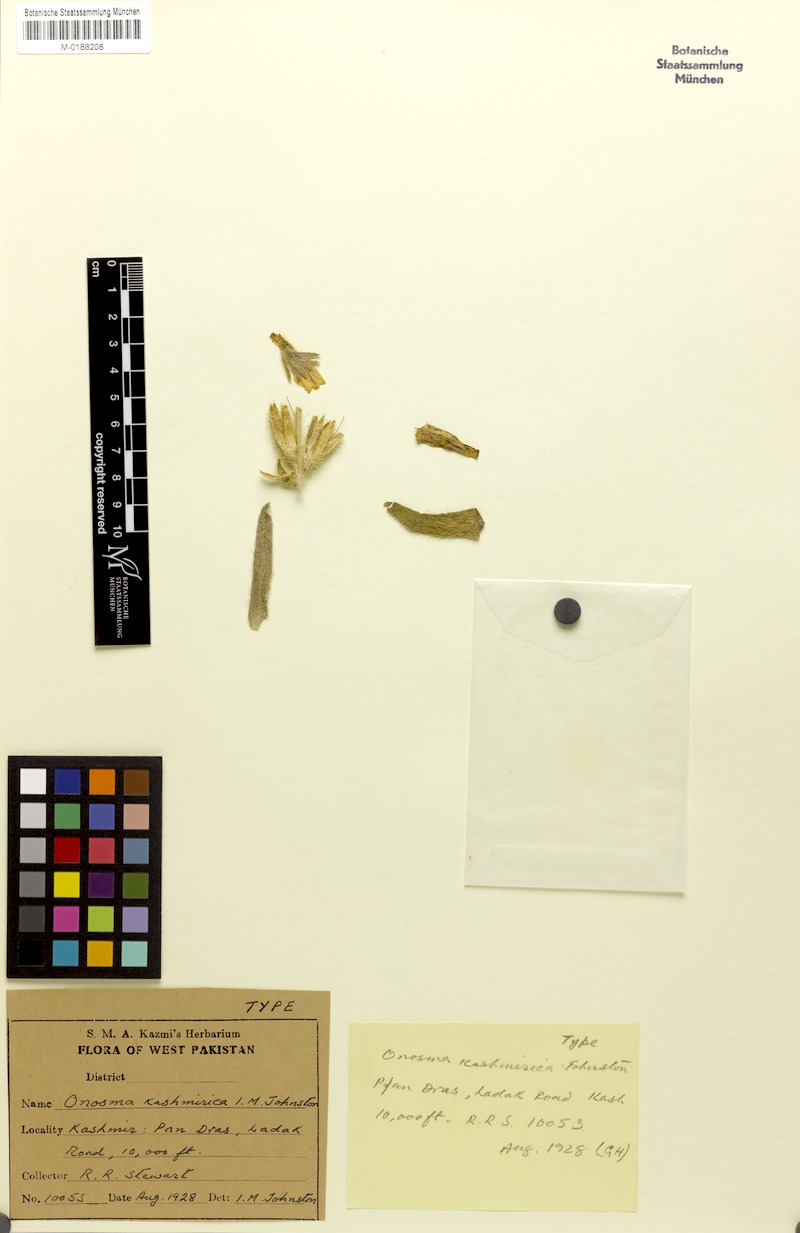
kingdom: Plantae
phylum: Tracheophyta
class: Magnoliopsida
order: Boraginales
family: Boraginaceae
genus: Onosma
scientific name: Onosma hispida
